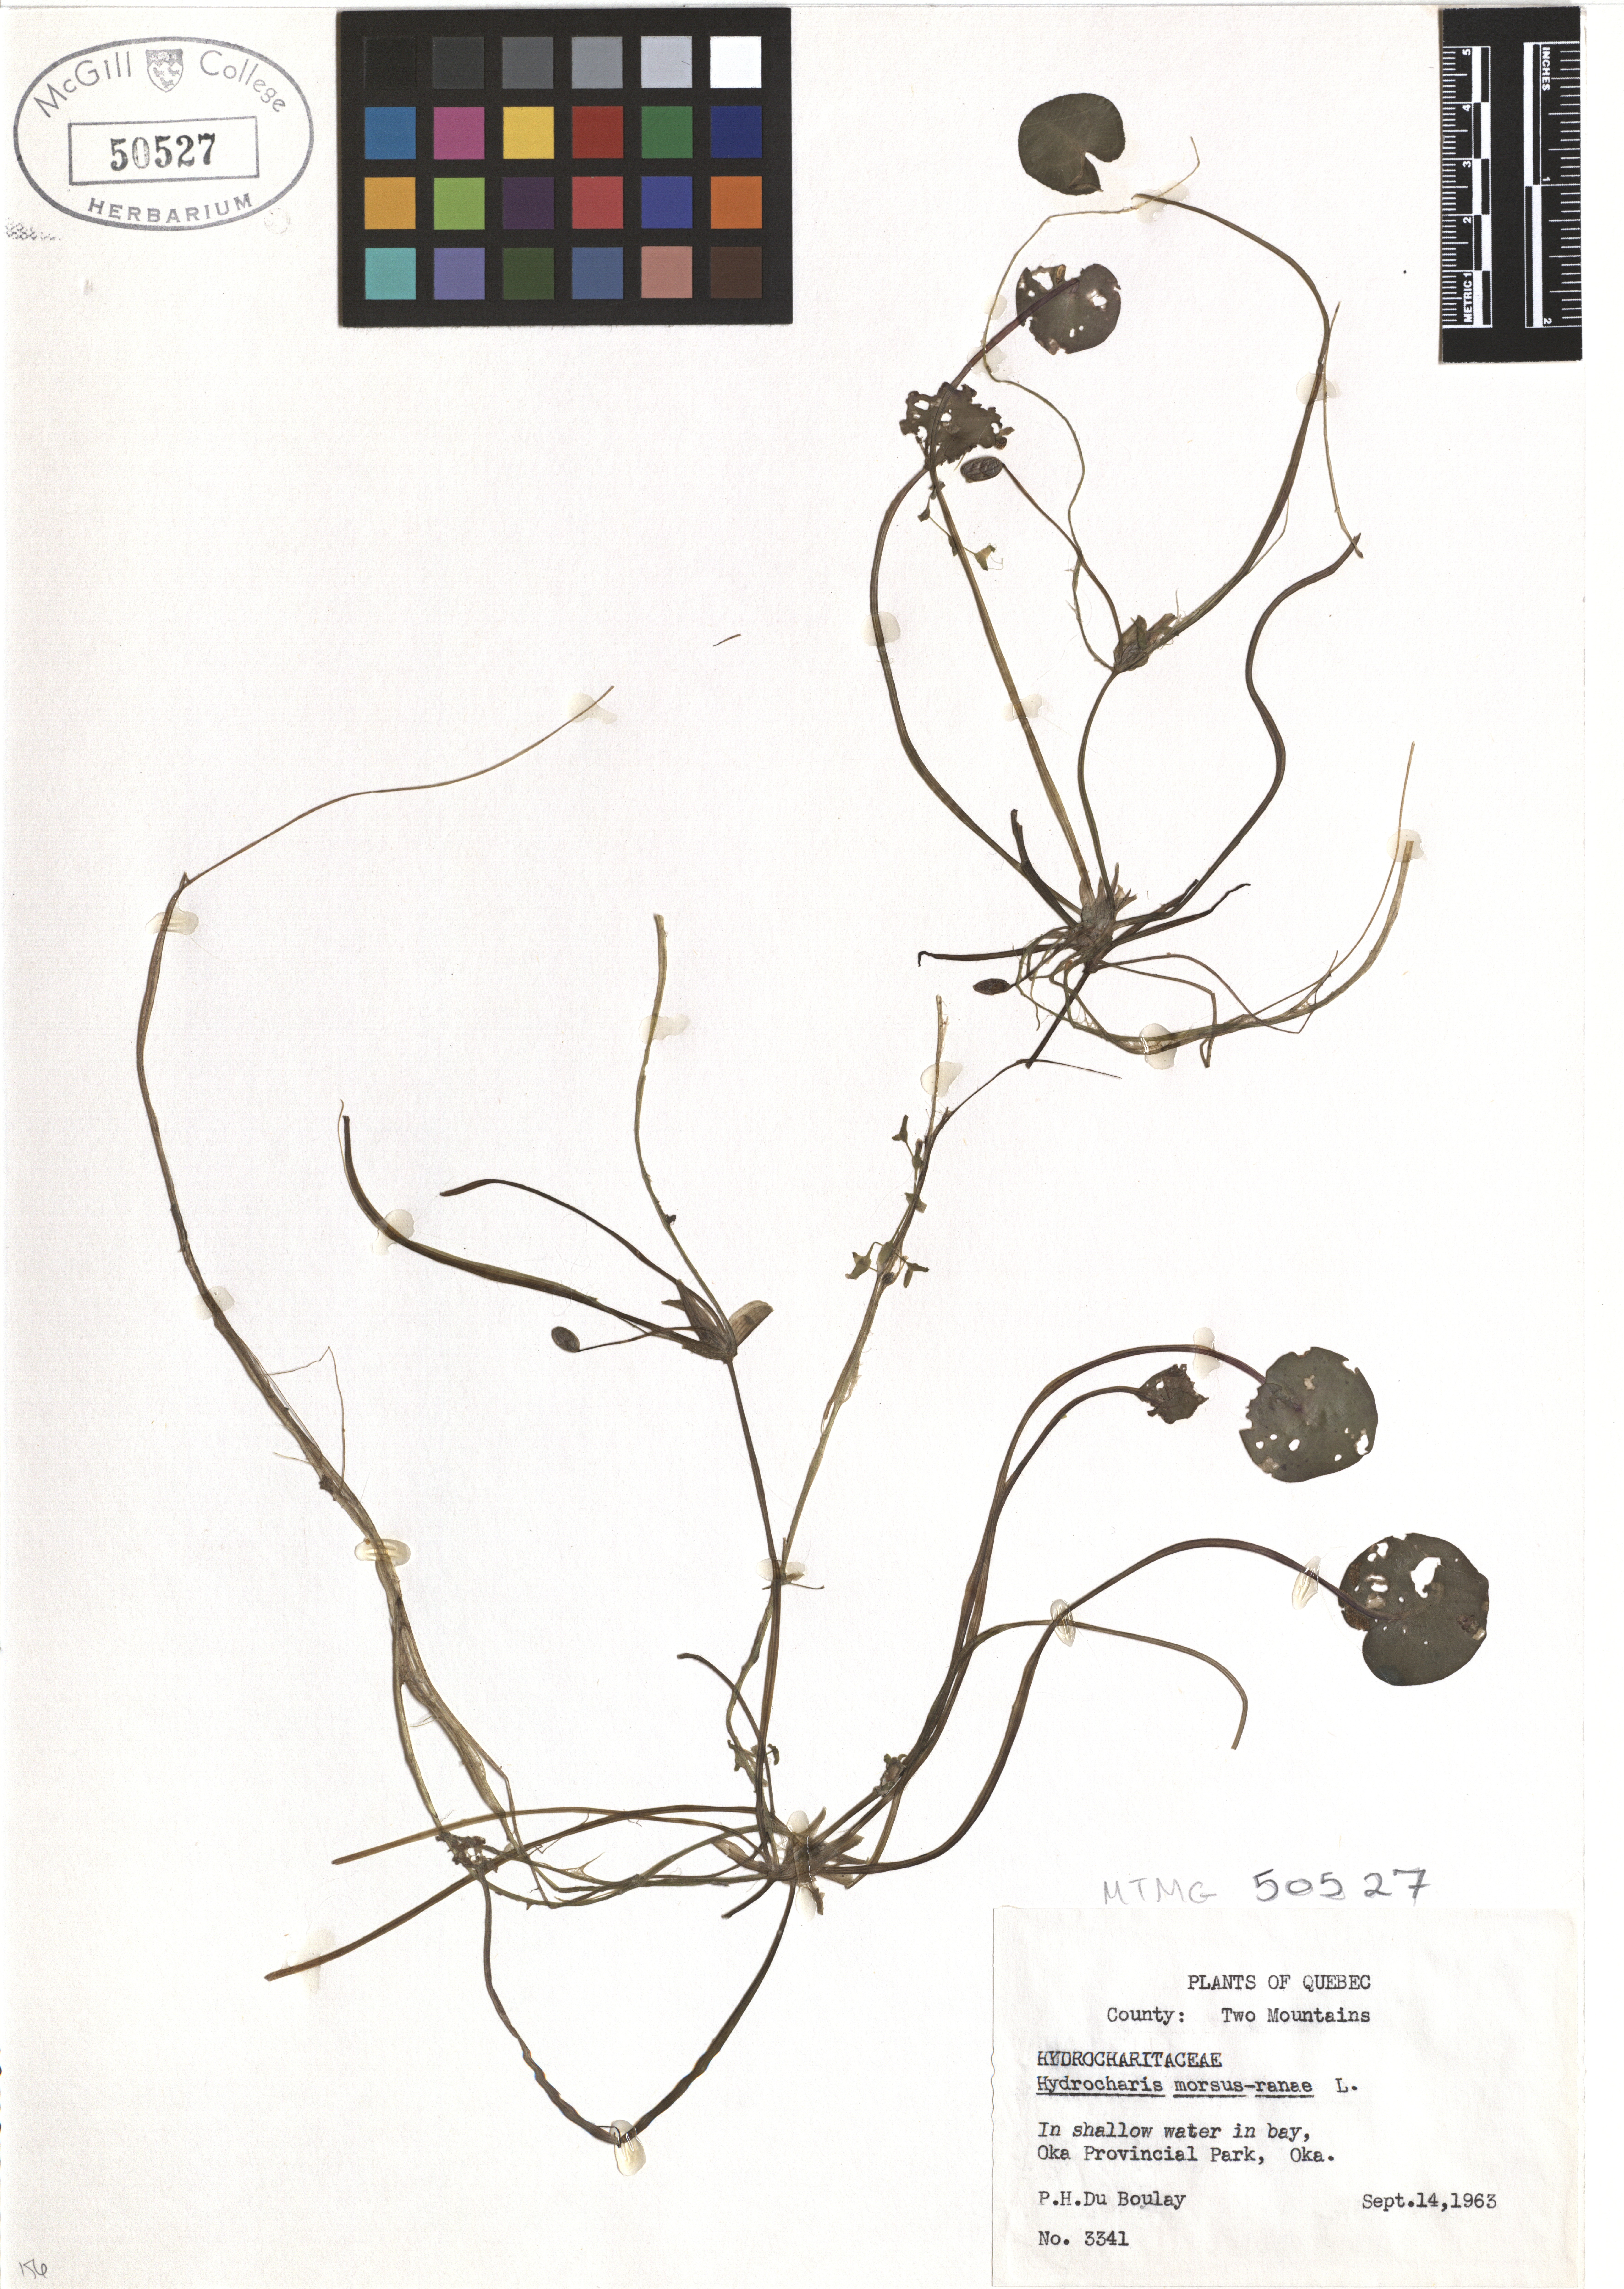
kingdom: Plantae
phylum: Tracheophyta
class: Liliopsida
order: Alismatales
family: Hydrocharitaceae
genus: Hydrocharis
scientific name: Hydrocharis morsus-ranae
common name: Frogbit
